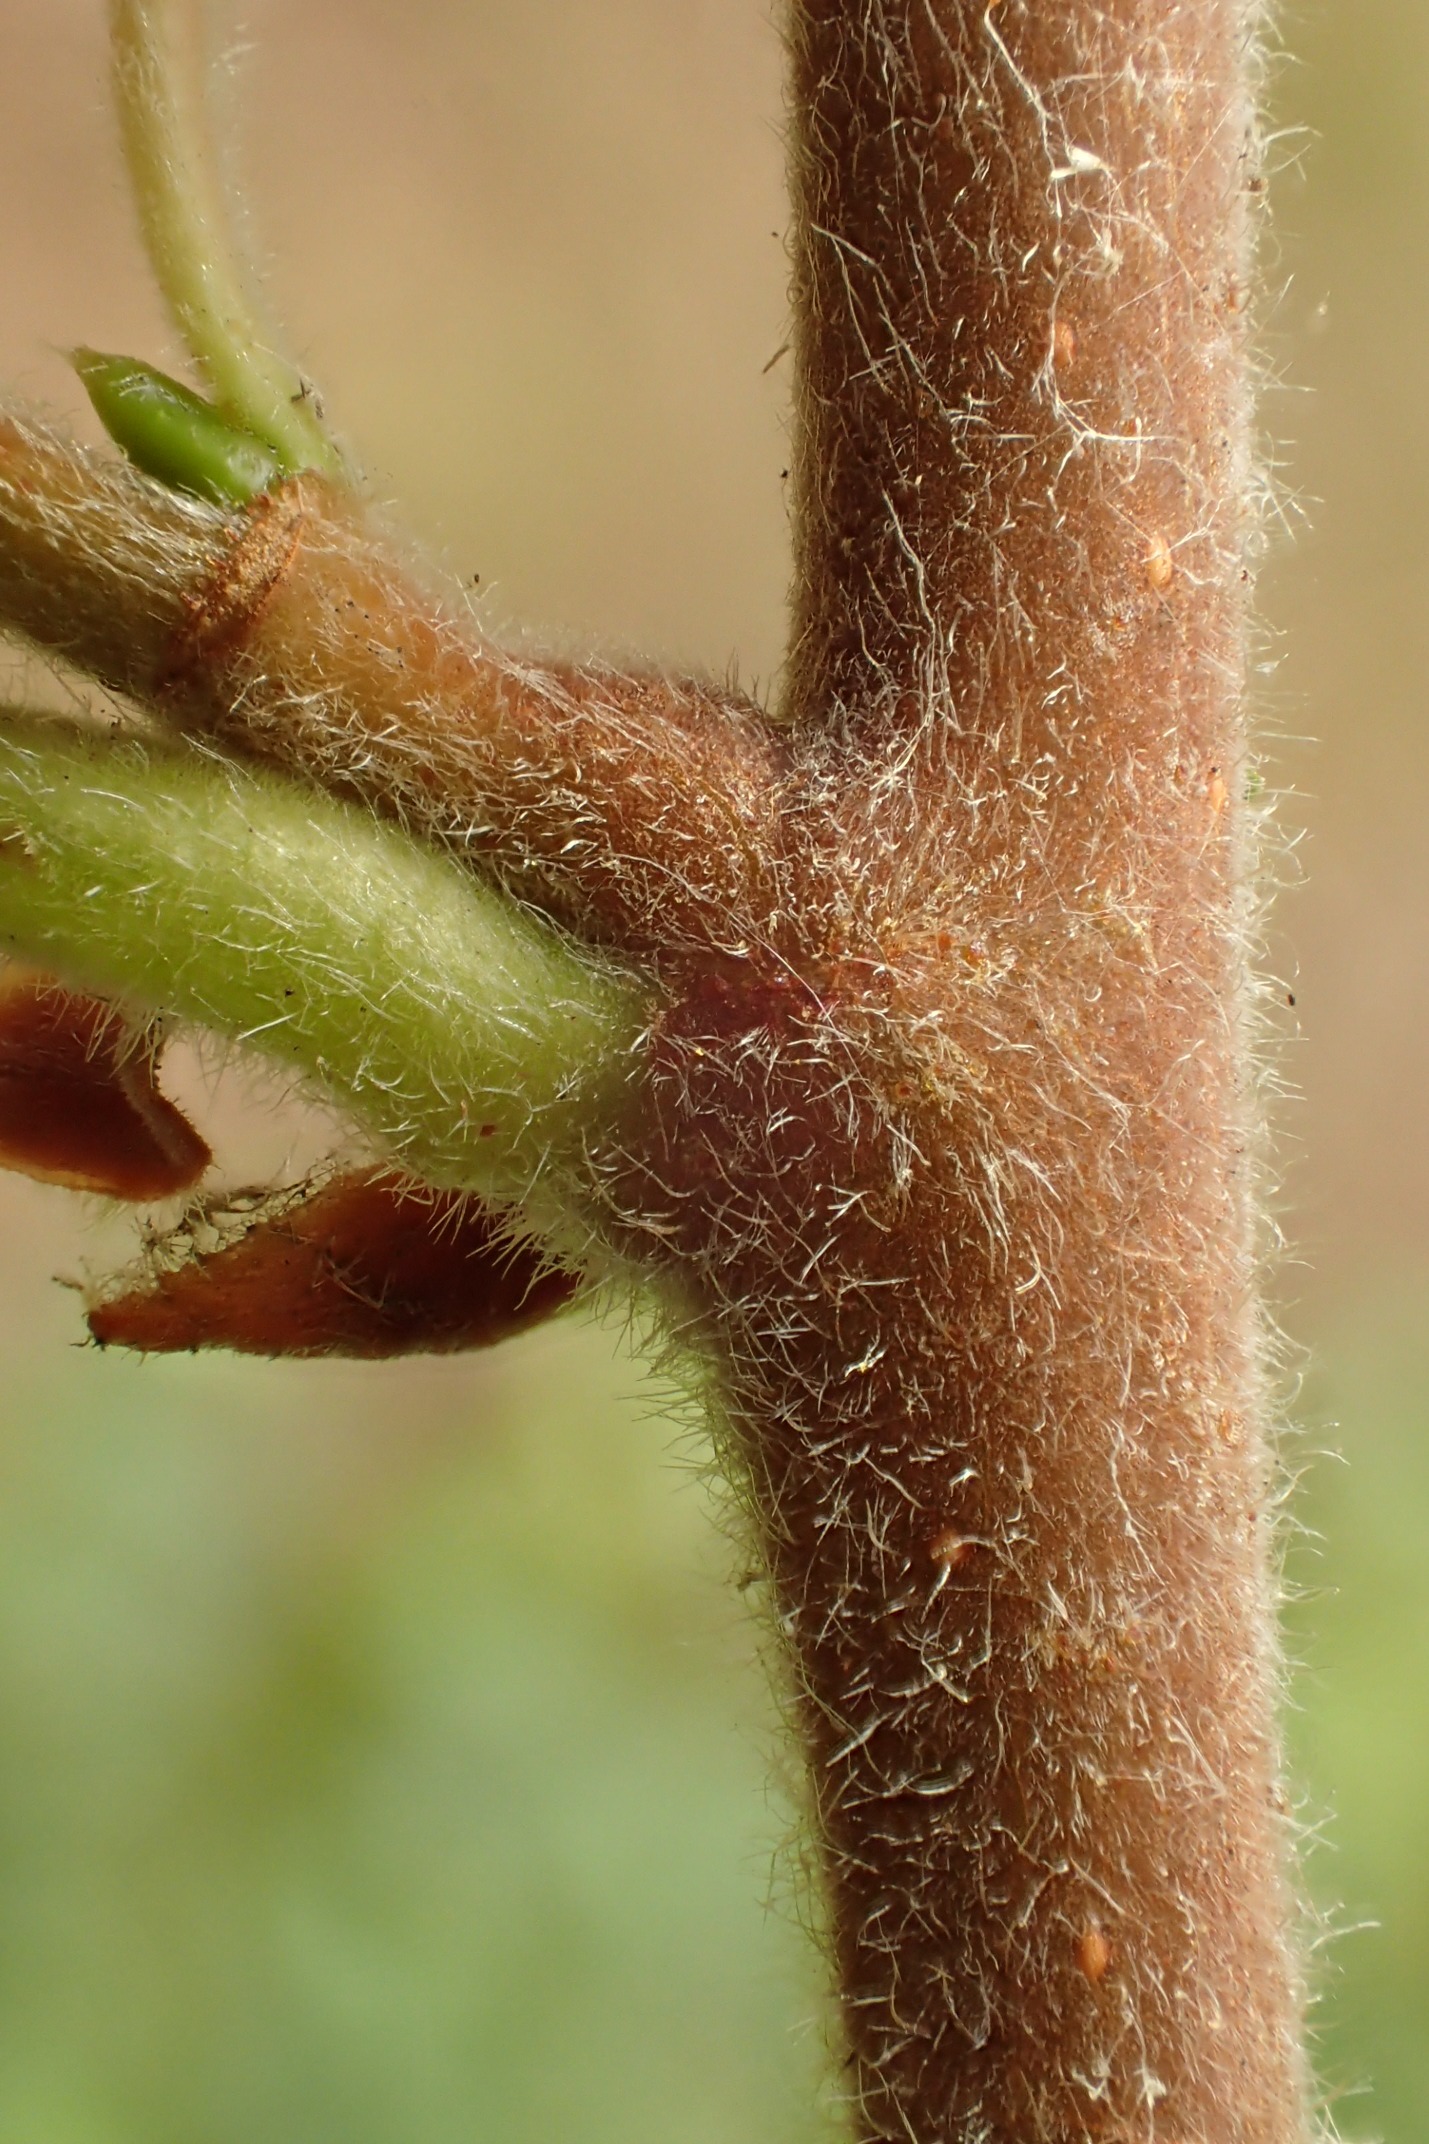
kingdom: Plantae
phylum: Tracheophyta
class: Magnoliopsida
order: Fagales
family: Betulaceae
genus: Betula
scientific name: Betula pubescens
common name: Dun-birk
